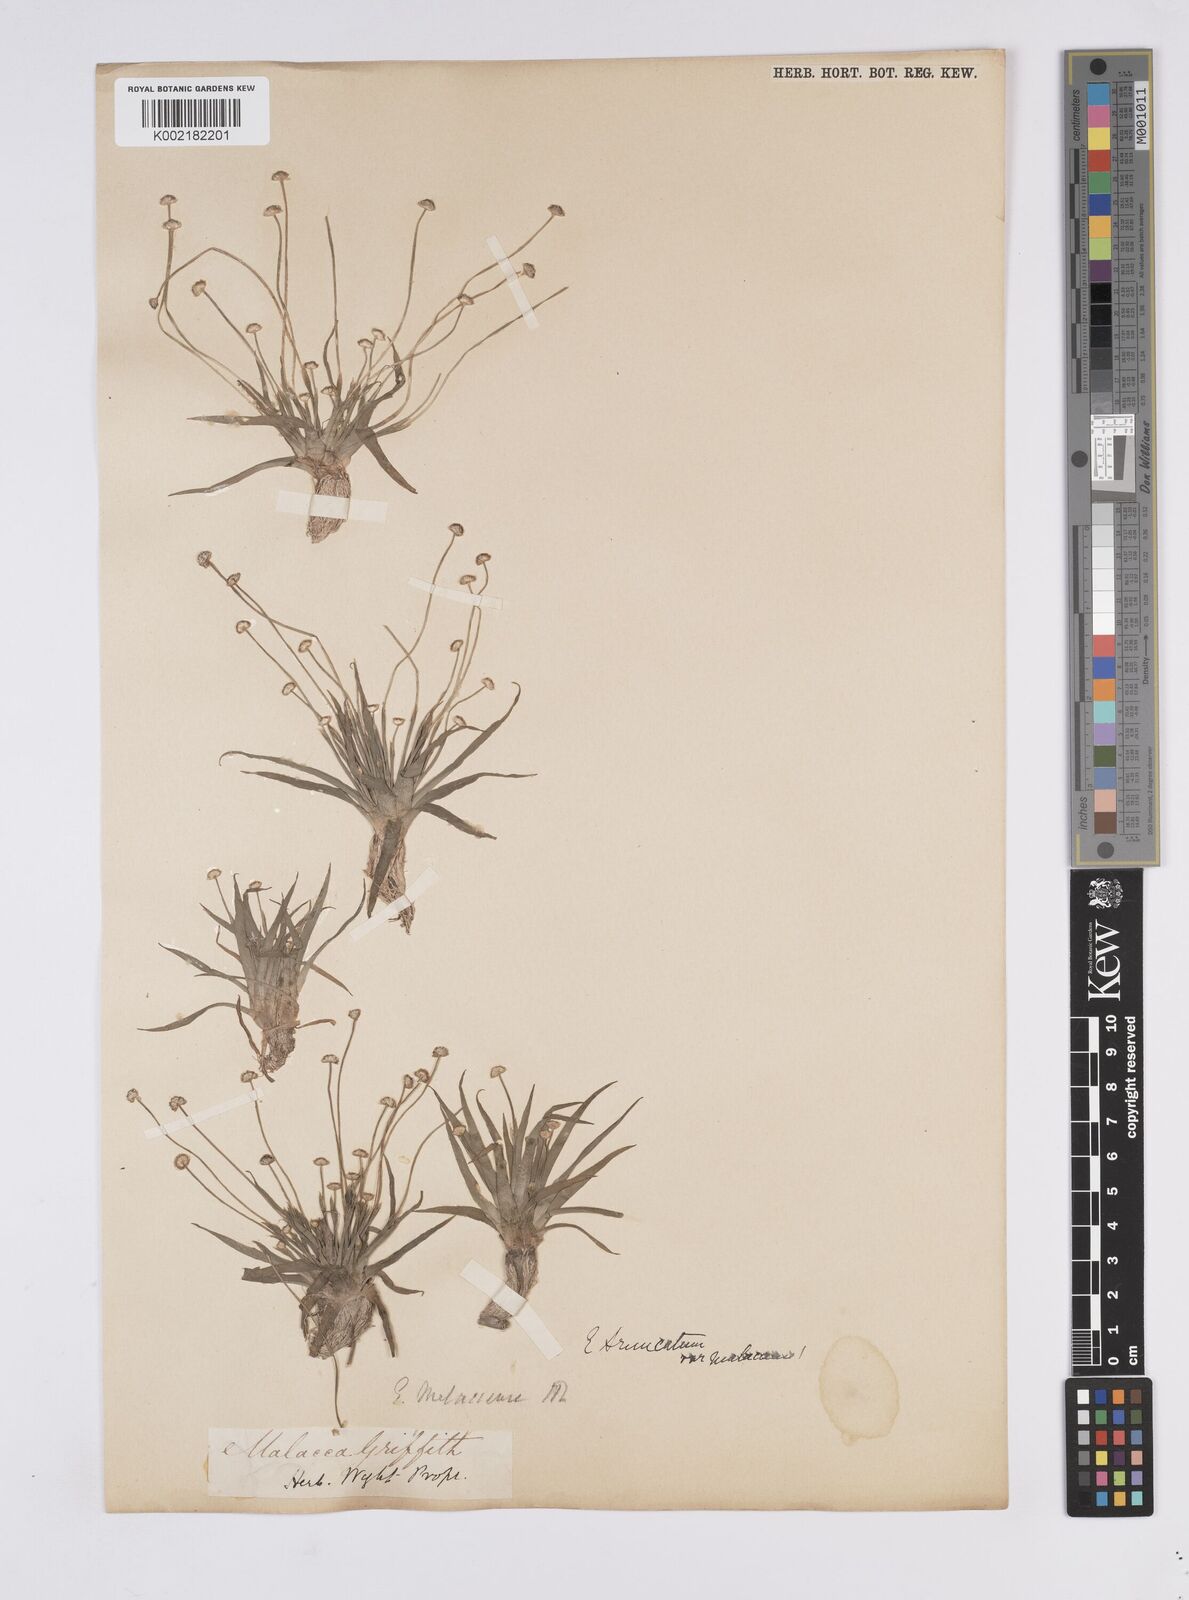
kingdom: Plantae
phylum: Tracheophyta
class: Liliopsida
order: Poales
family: Eriocaulaceae
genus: Eriocaulon
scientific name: Eriocaulon
